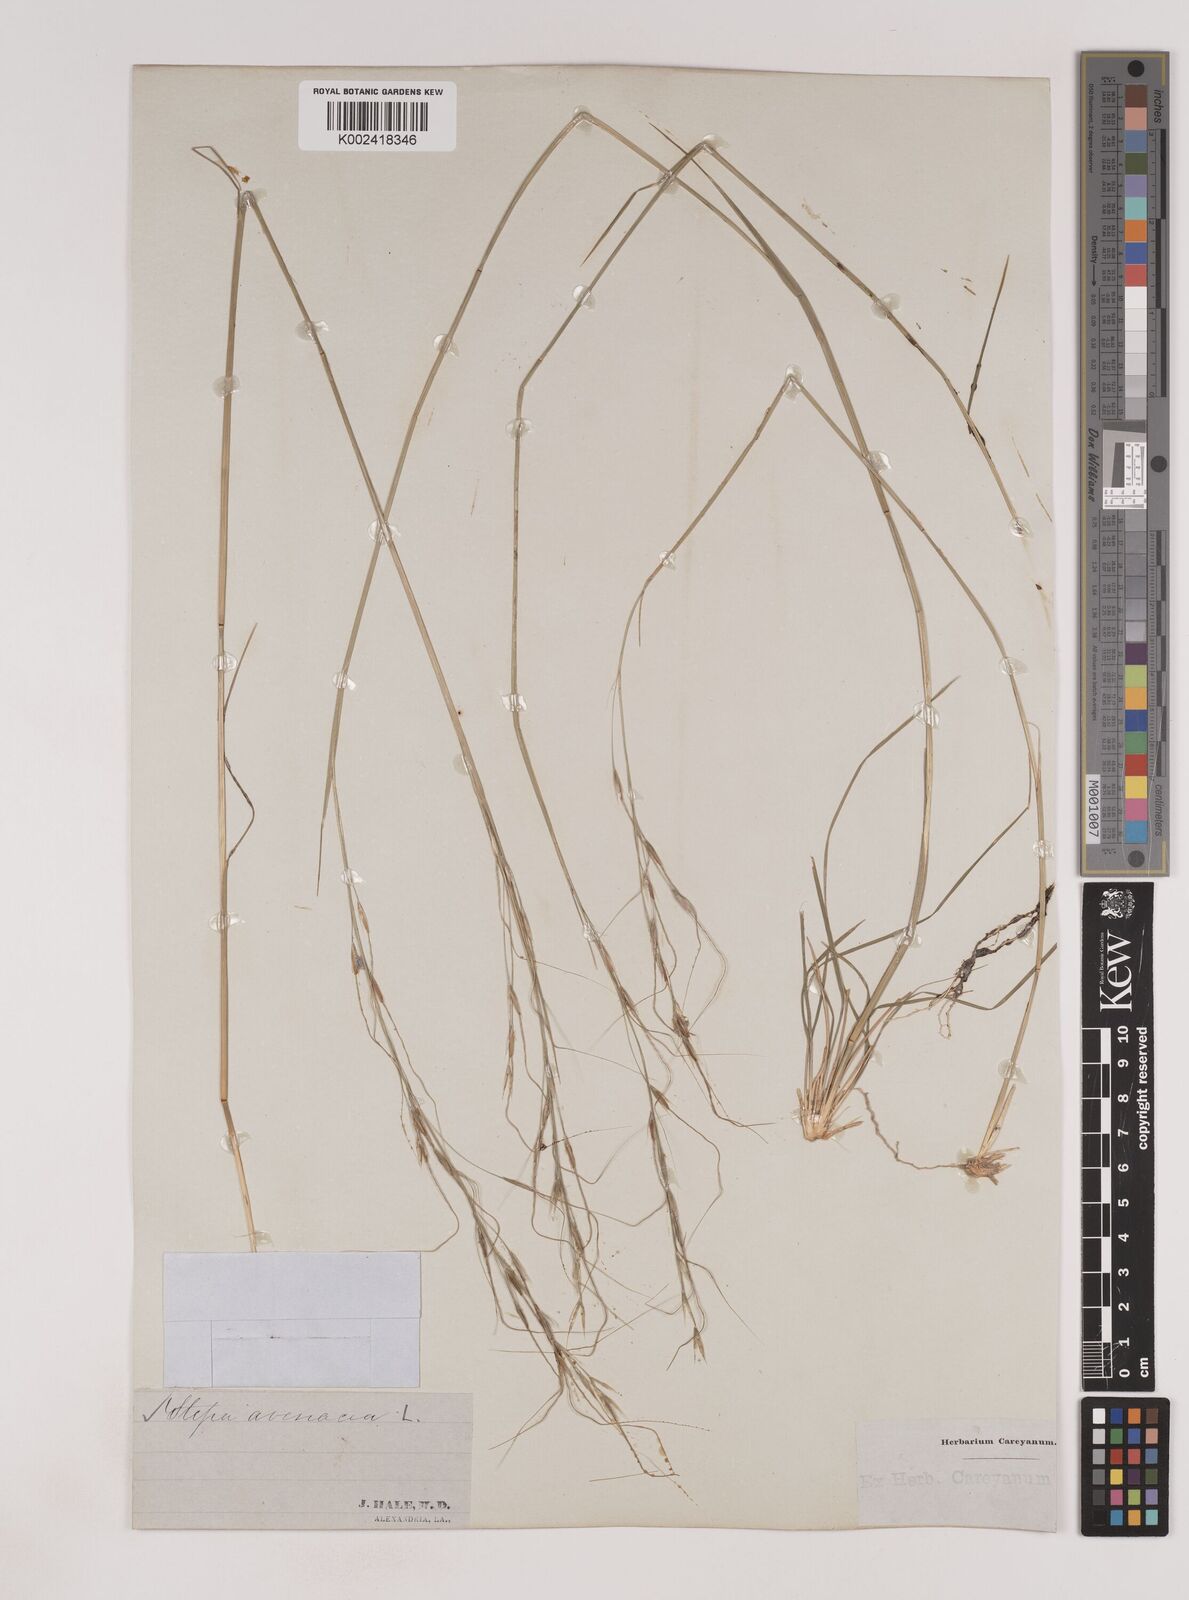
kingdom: Plantae
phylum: Tracheophyta
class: Liliopsida
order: Poales
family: Poaceae
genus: Piptochaetium
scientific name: Piptochaetium avenaceum
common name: Black bunchgrass
